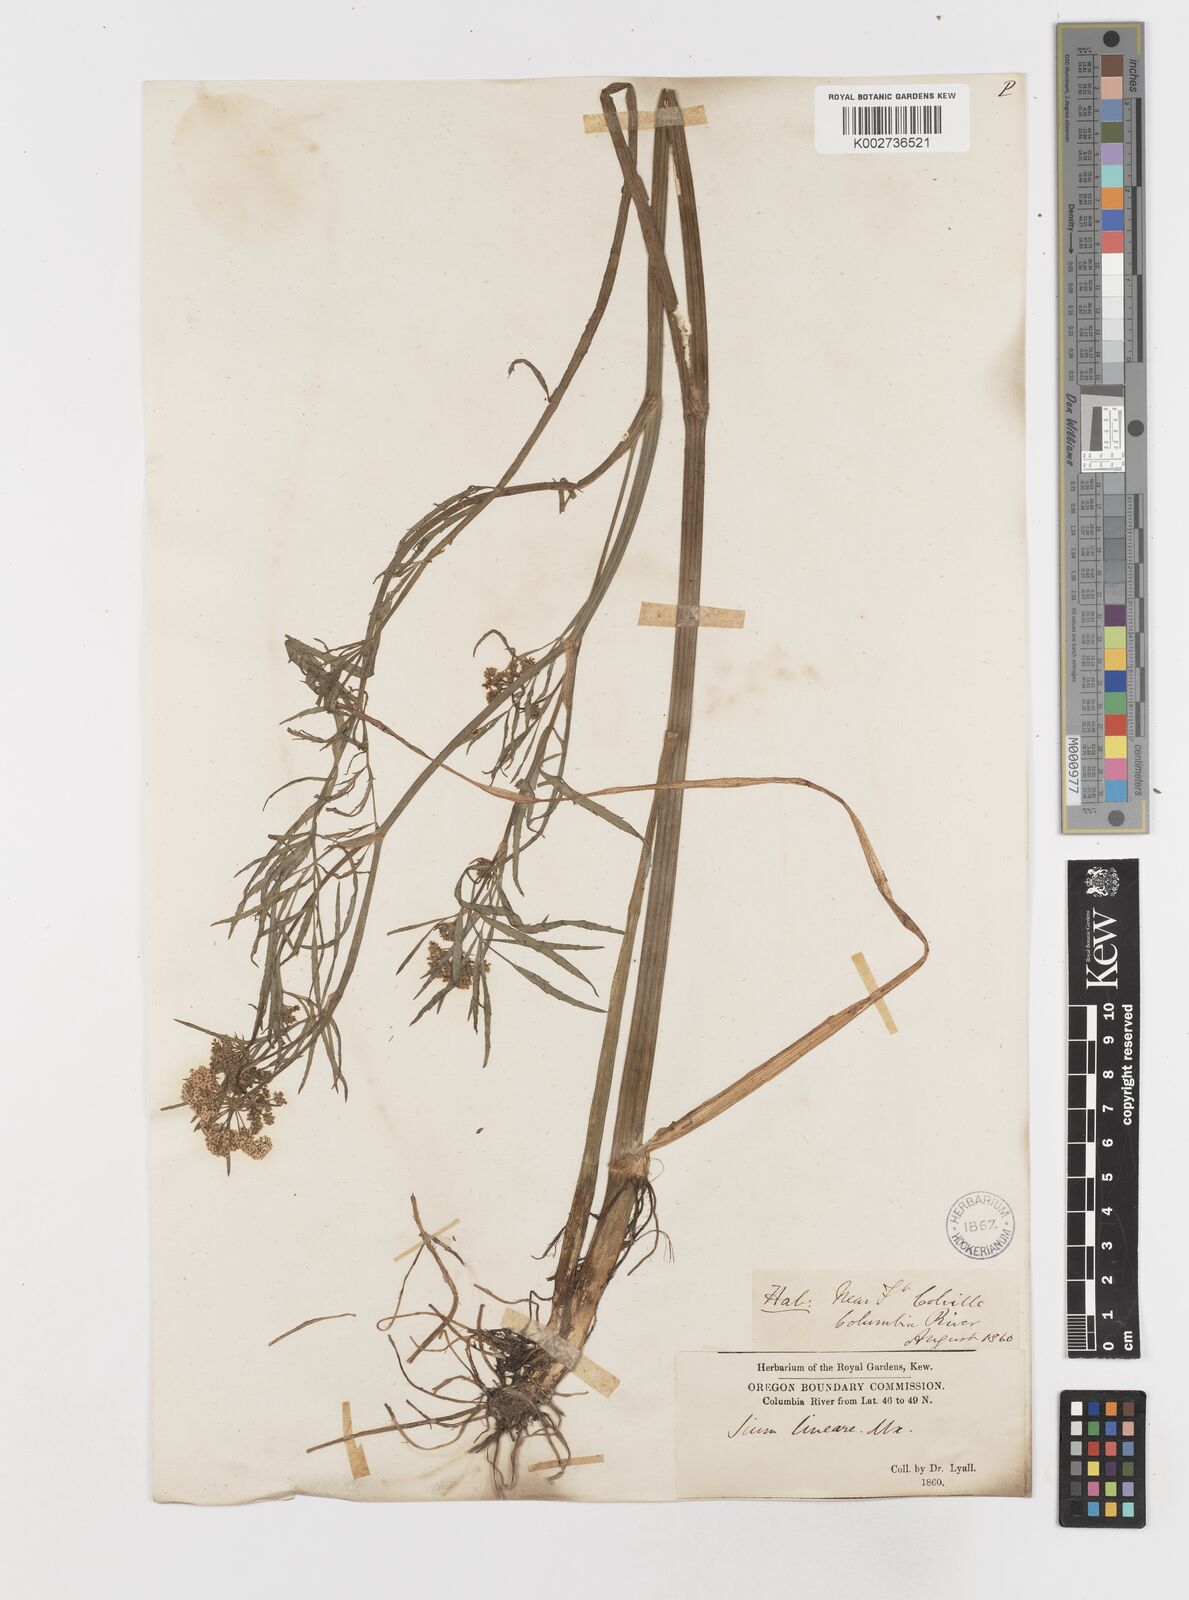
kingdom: Plantae
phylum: Tracheophyta
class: Magnoliopsida
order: Apiales
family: Apiaceae
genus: Sium
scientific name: Sium suave
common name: Hemlock water-parsnip
